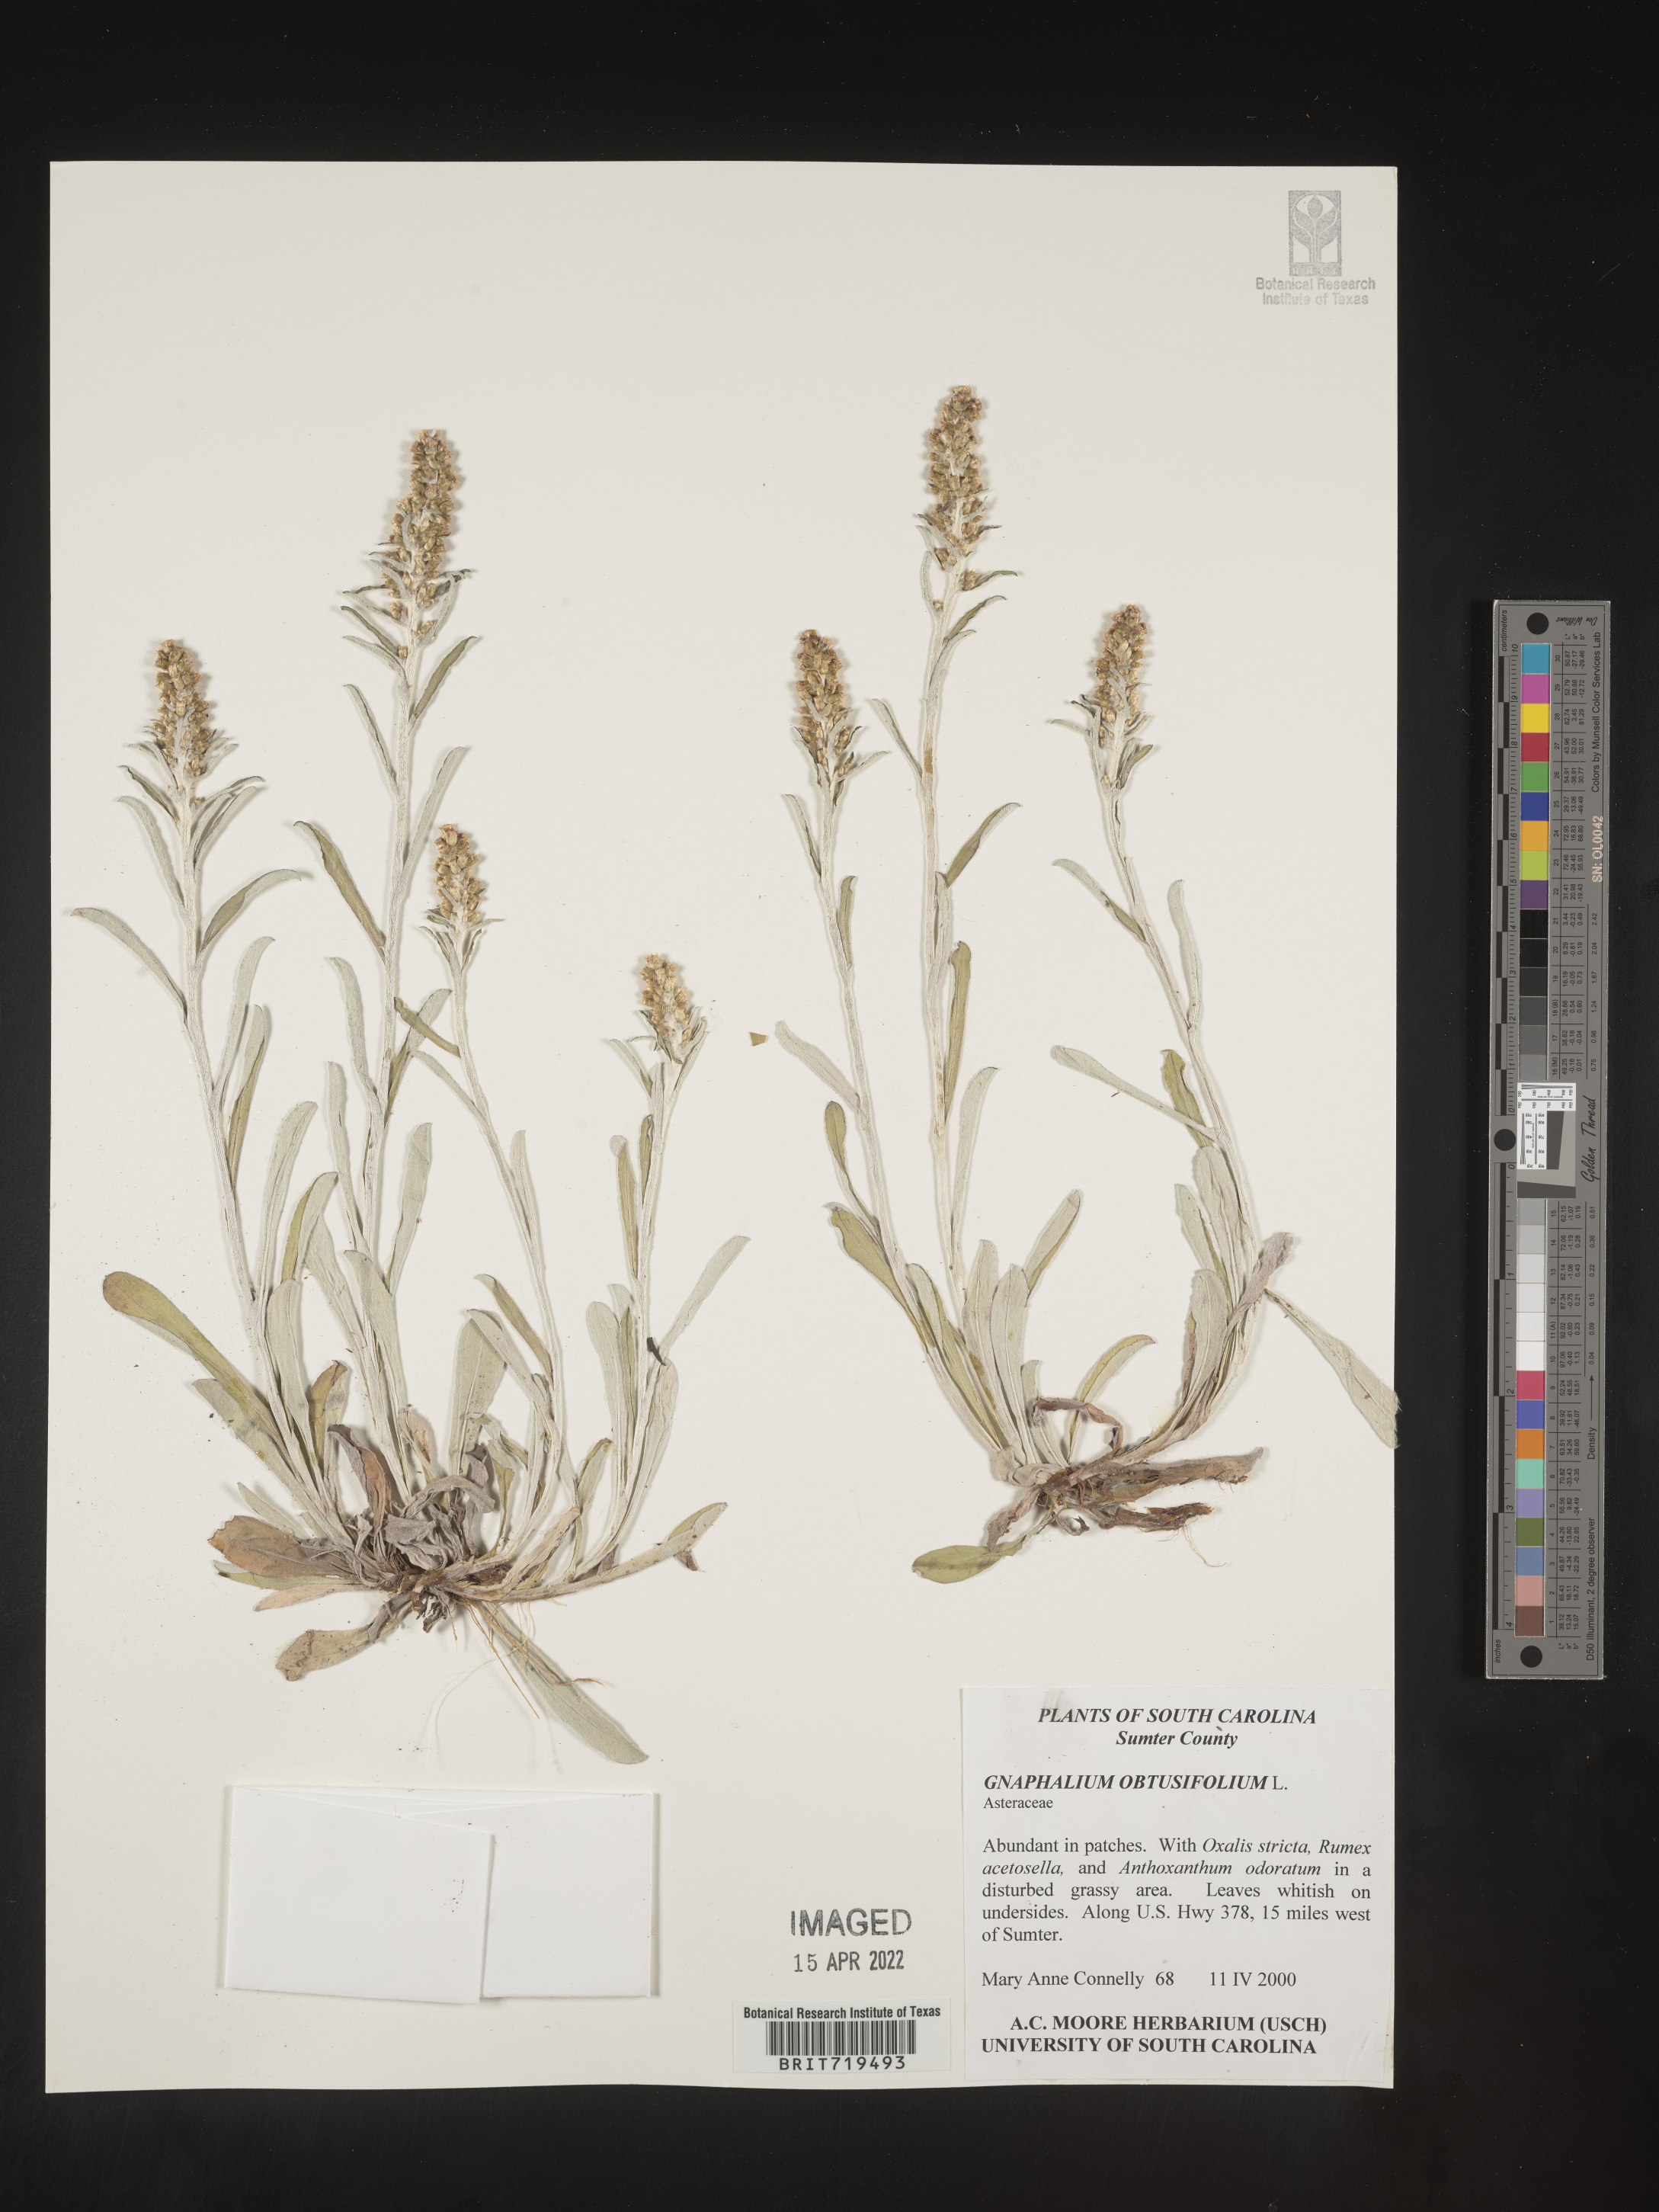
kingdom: Plantae
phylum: Tracheophyta
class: Magnoliopsida
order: Asterales
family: Asteraceae
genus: Gamochaeta
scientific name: Gamochaeta argyrinea
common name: Silvery cudweed
